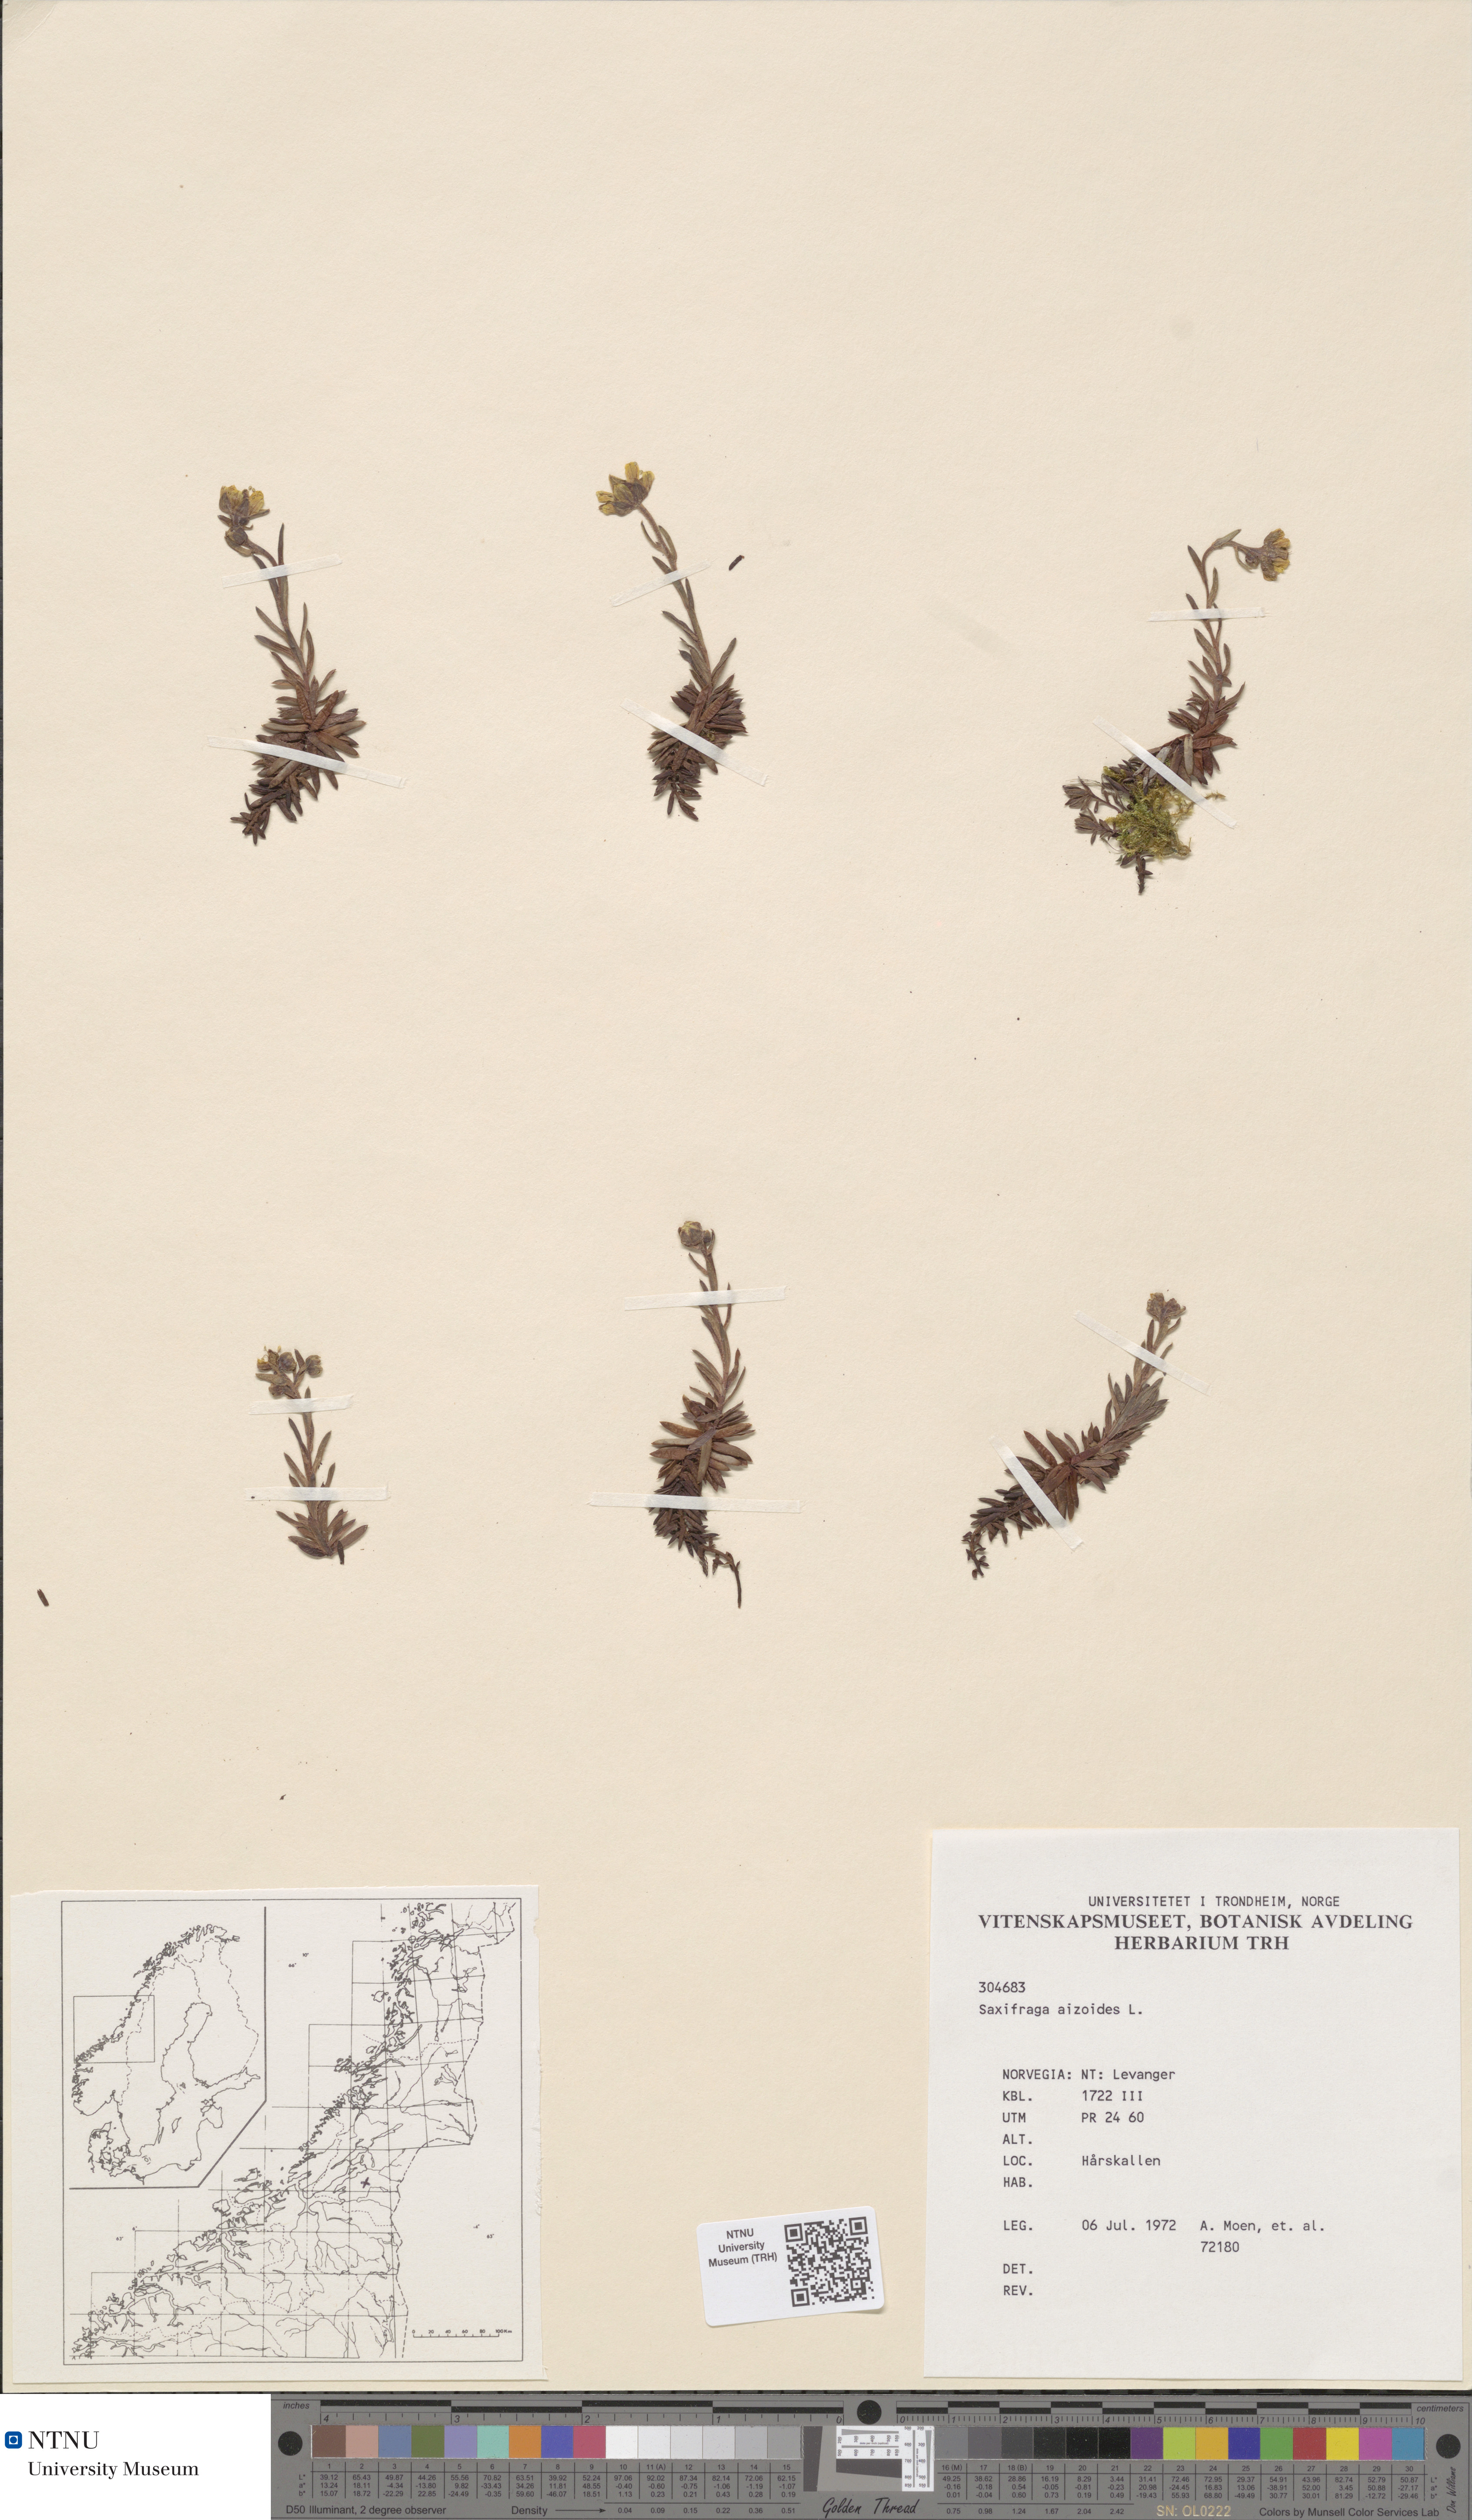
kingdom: Plantae
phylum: Tracheophyta
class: Magnoliopsida
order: Saxifragales
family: Saxifragaceae
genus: Saxifraga
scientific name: Saxifraga aizoides
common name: Yellow mountain saxifrage
